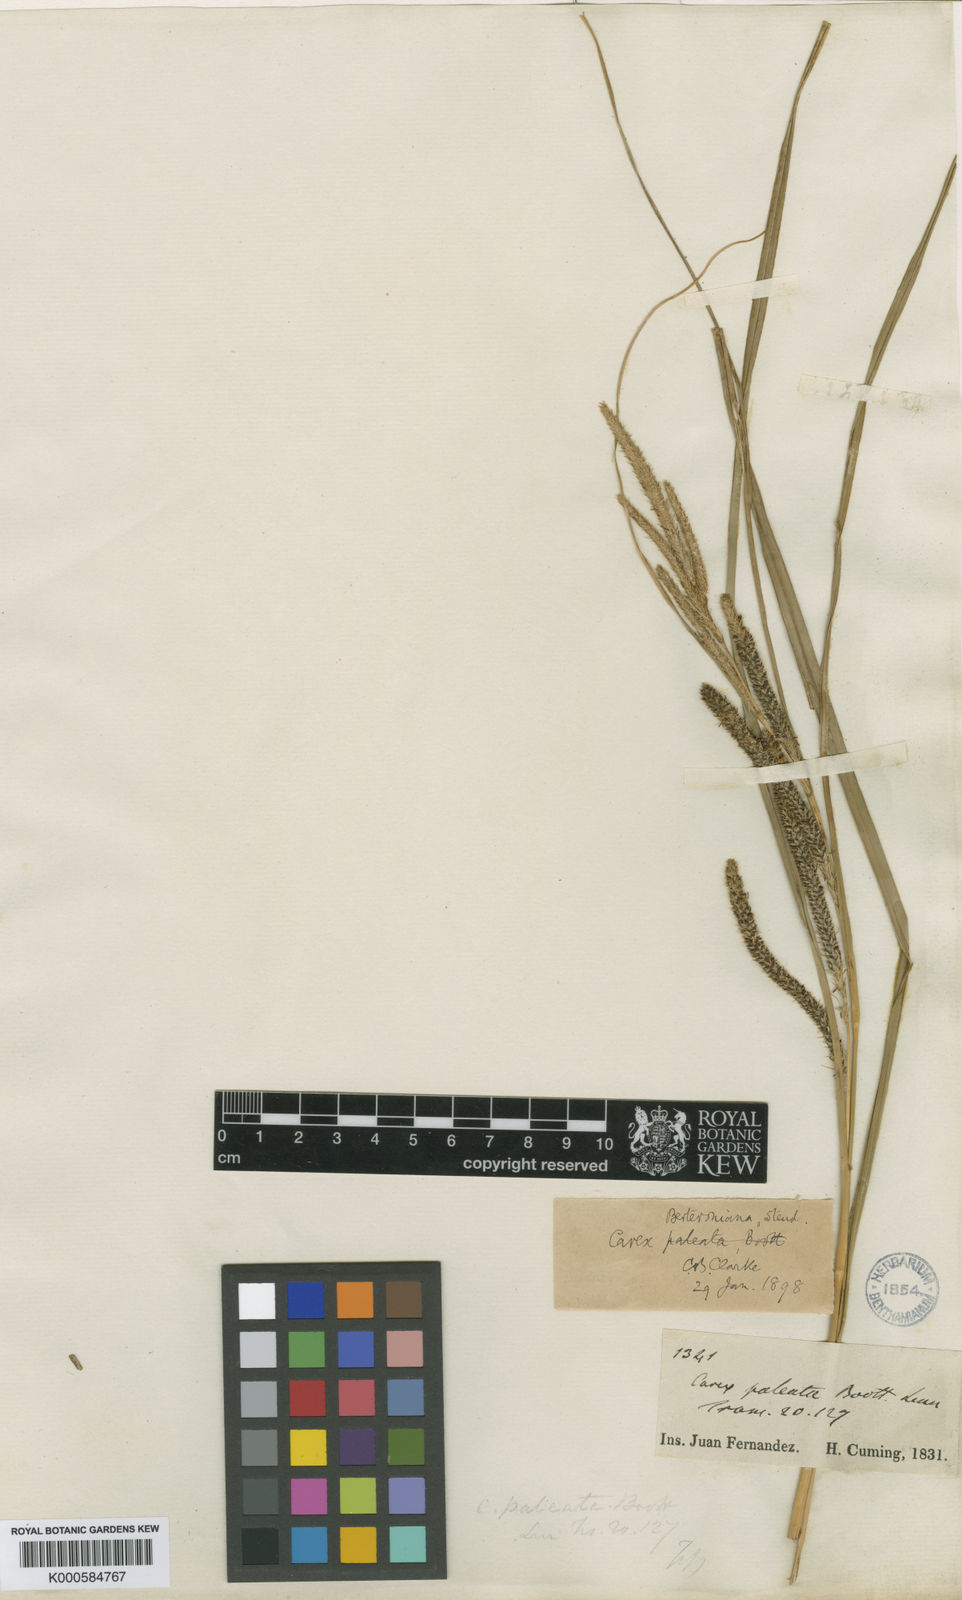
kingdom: Plantae
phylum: Tracheophyta
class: Liliopsida
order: Poales
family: Cyperaceae
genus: Carex
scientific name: Carex berteroniana
